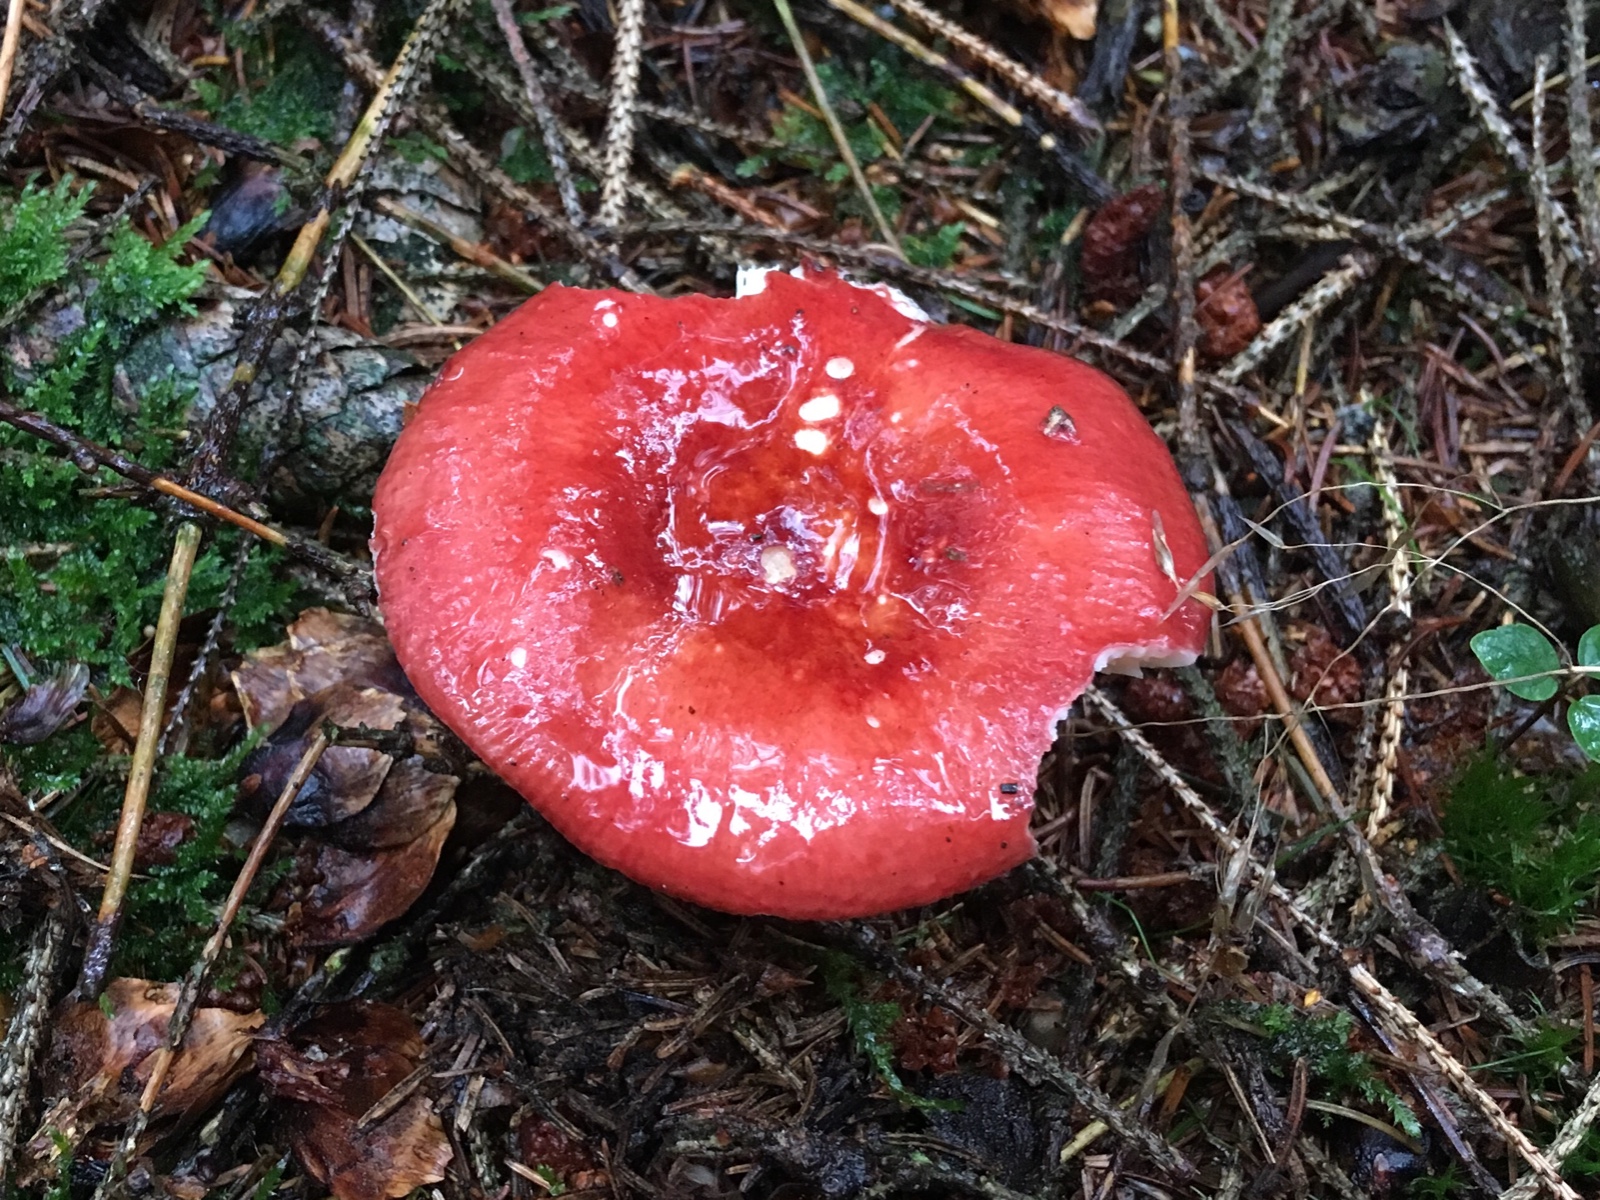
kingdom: Fungi
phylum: Basidiomycota
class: Agaricomycetes
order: Russulales
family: Russulaceae
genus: Russula
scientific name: Russula paludosa
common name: prægtig skørhat
